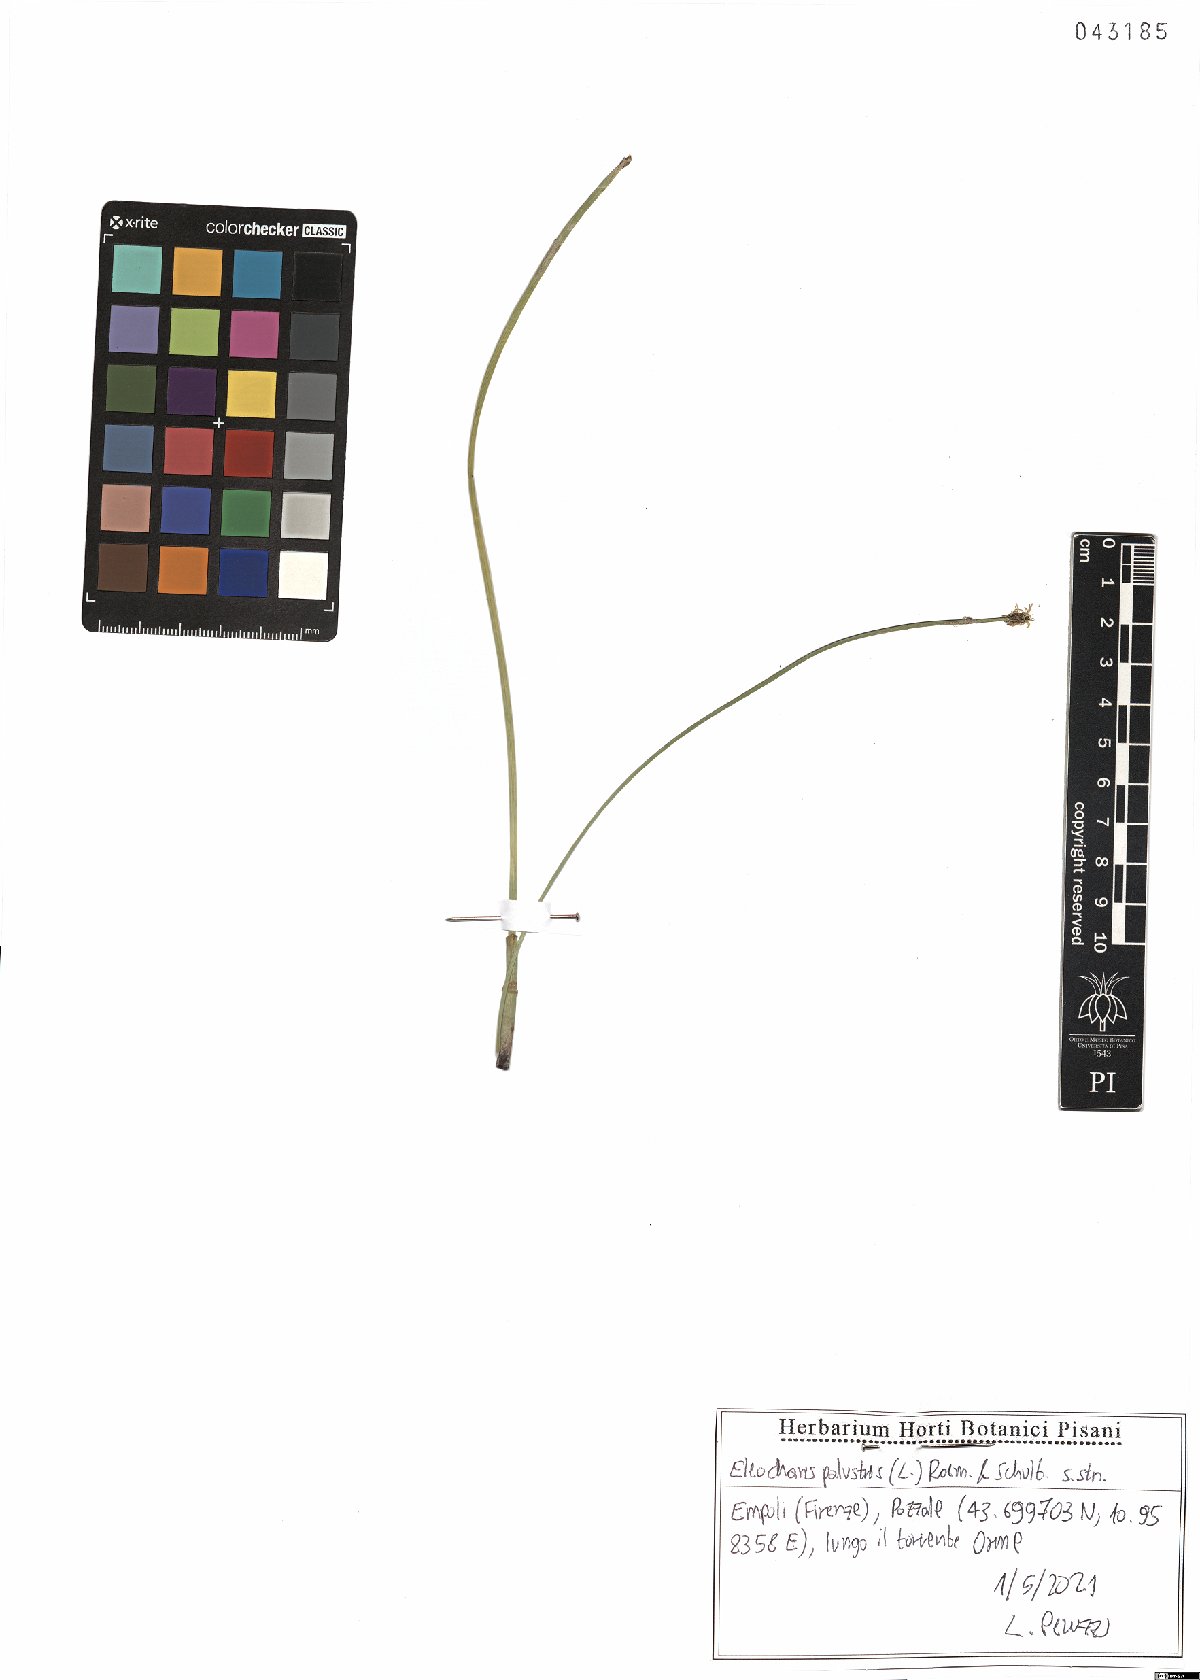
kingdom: Plantae
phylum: Tracheophyta
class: Liliopsida
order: Poales
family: Cyperaceae
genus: Eleocharis
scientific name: Eleocharis palustris
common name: Common spike-rush
